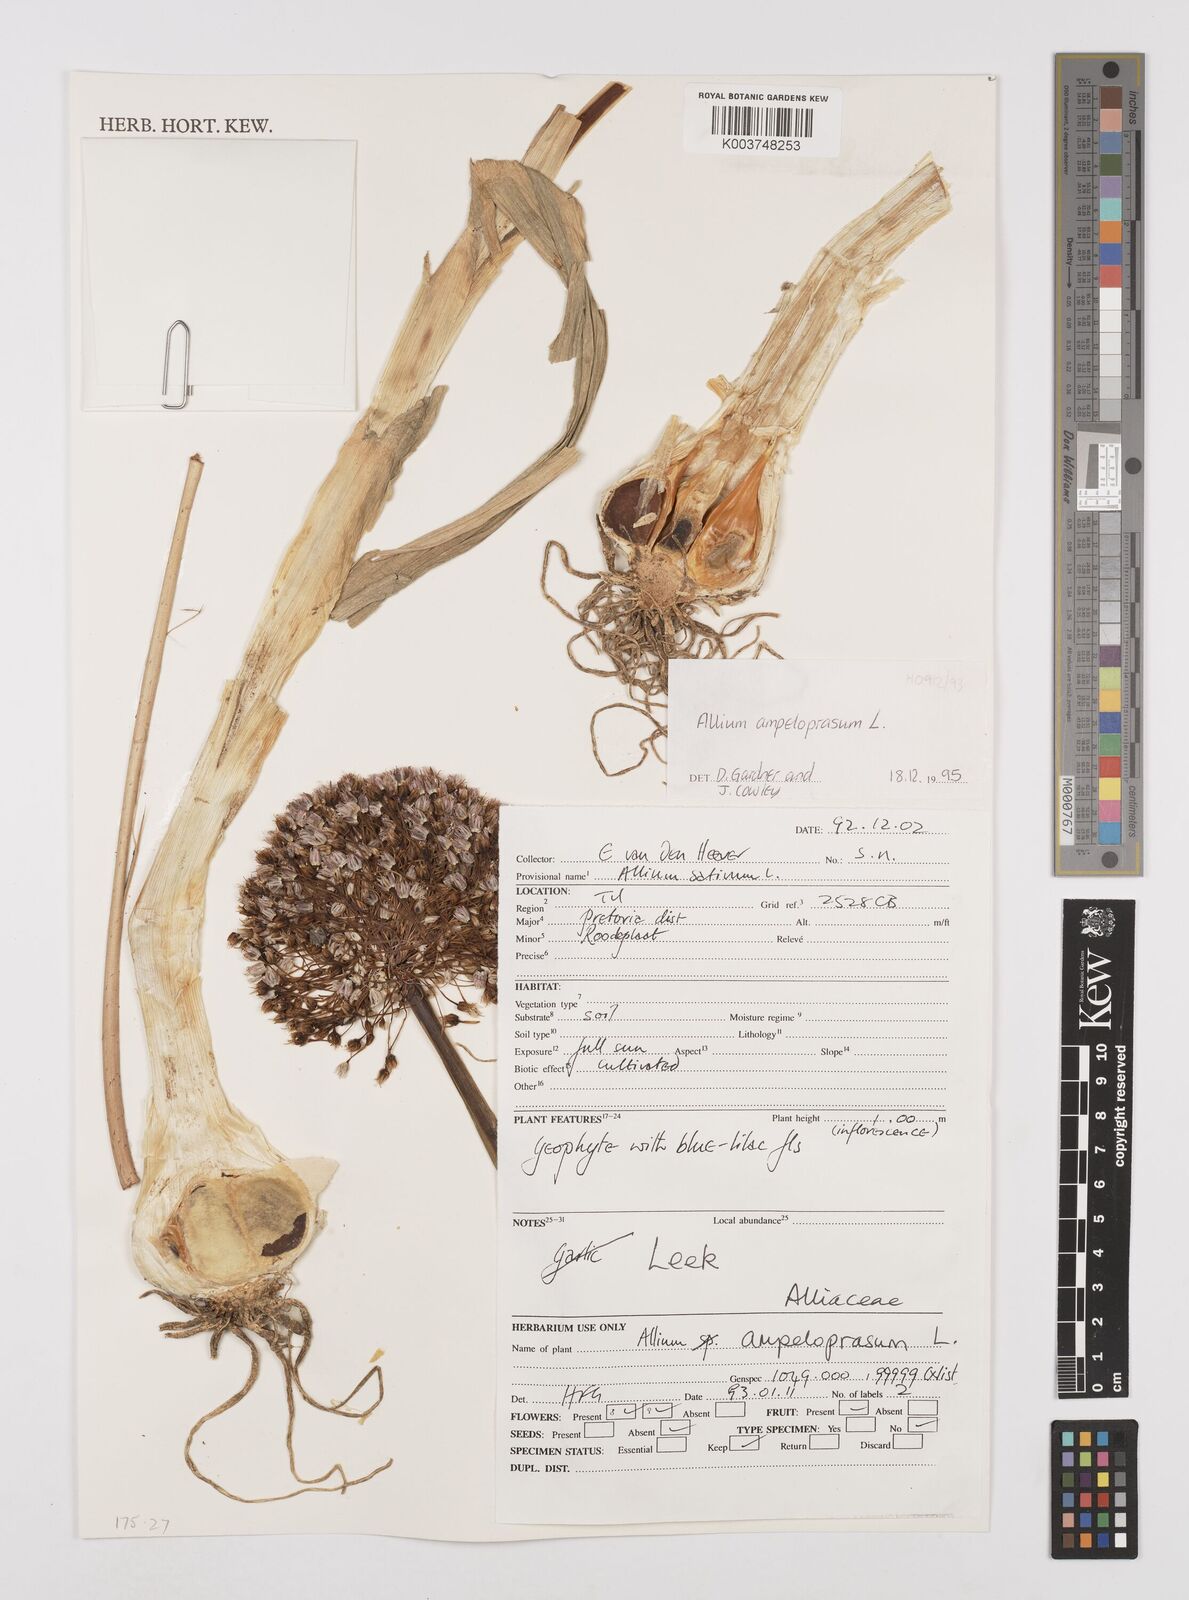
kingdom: Plantae
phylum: Tracheophyta
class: Liliopsida
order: Asparagales
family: Amaryllidaceae
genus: Allium
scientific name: Allium ampeloprasum
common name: Wild leek
